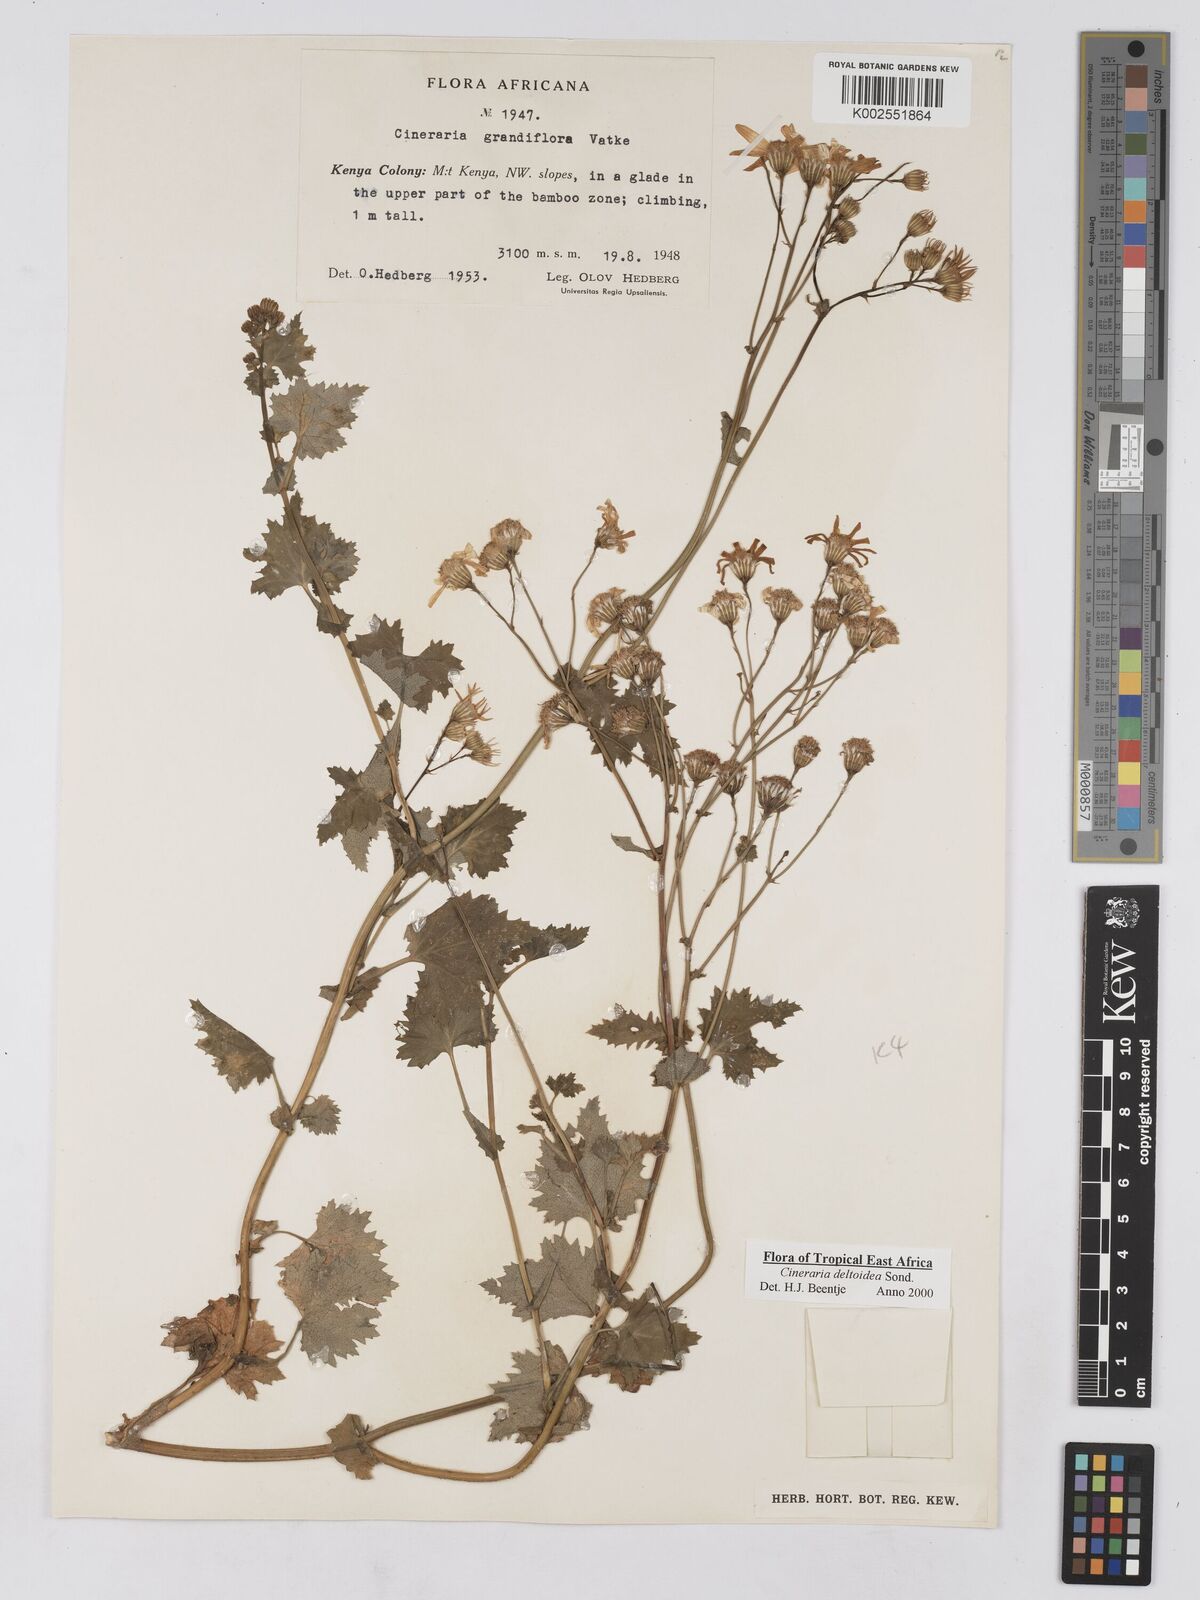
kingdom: Plantae
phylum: Tracheophyta
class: Magnoliopsida
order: Asterales
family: Asteraceae
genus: Cineraria
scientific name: Cineraria deltoidea
